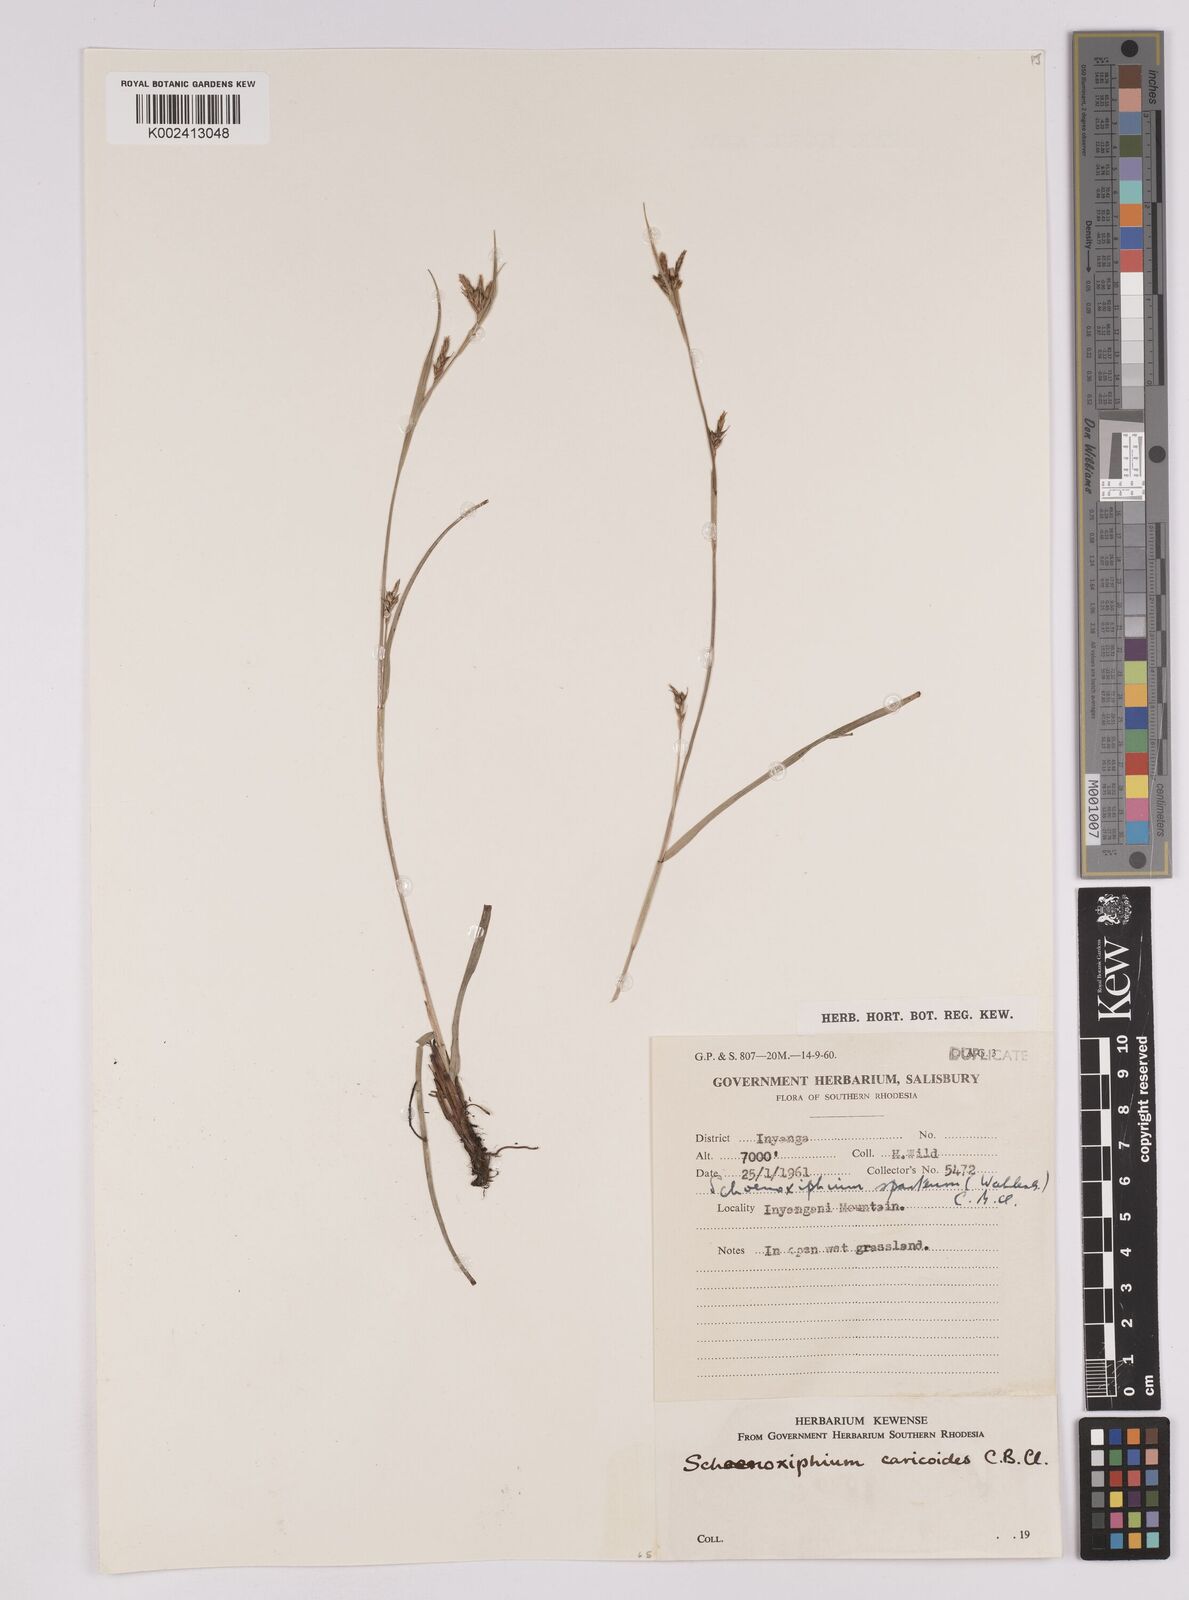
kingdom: Plantae
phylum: Tracheophyta
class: Liliopsida
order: Poales
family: Cyperaceae
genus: Carex
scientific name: Carex spartea
